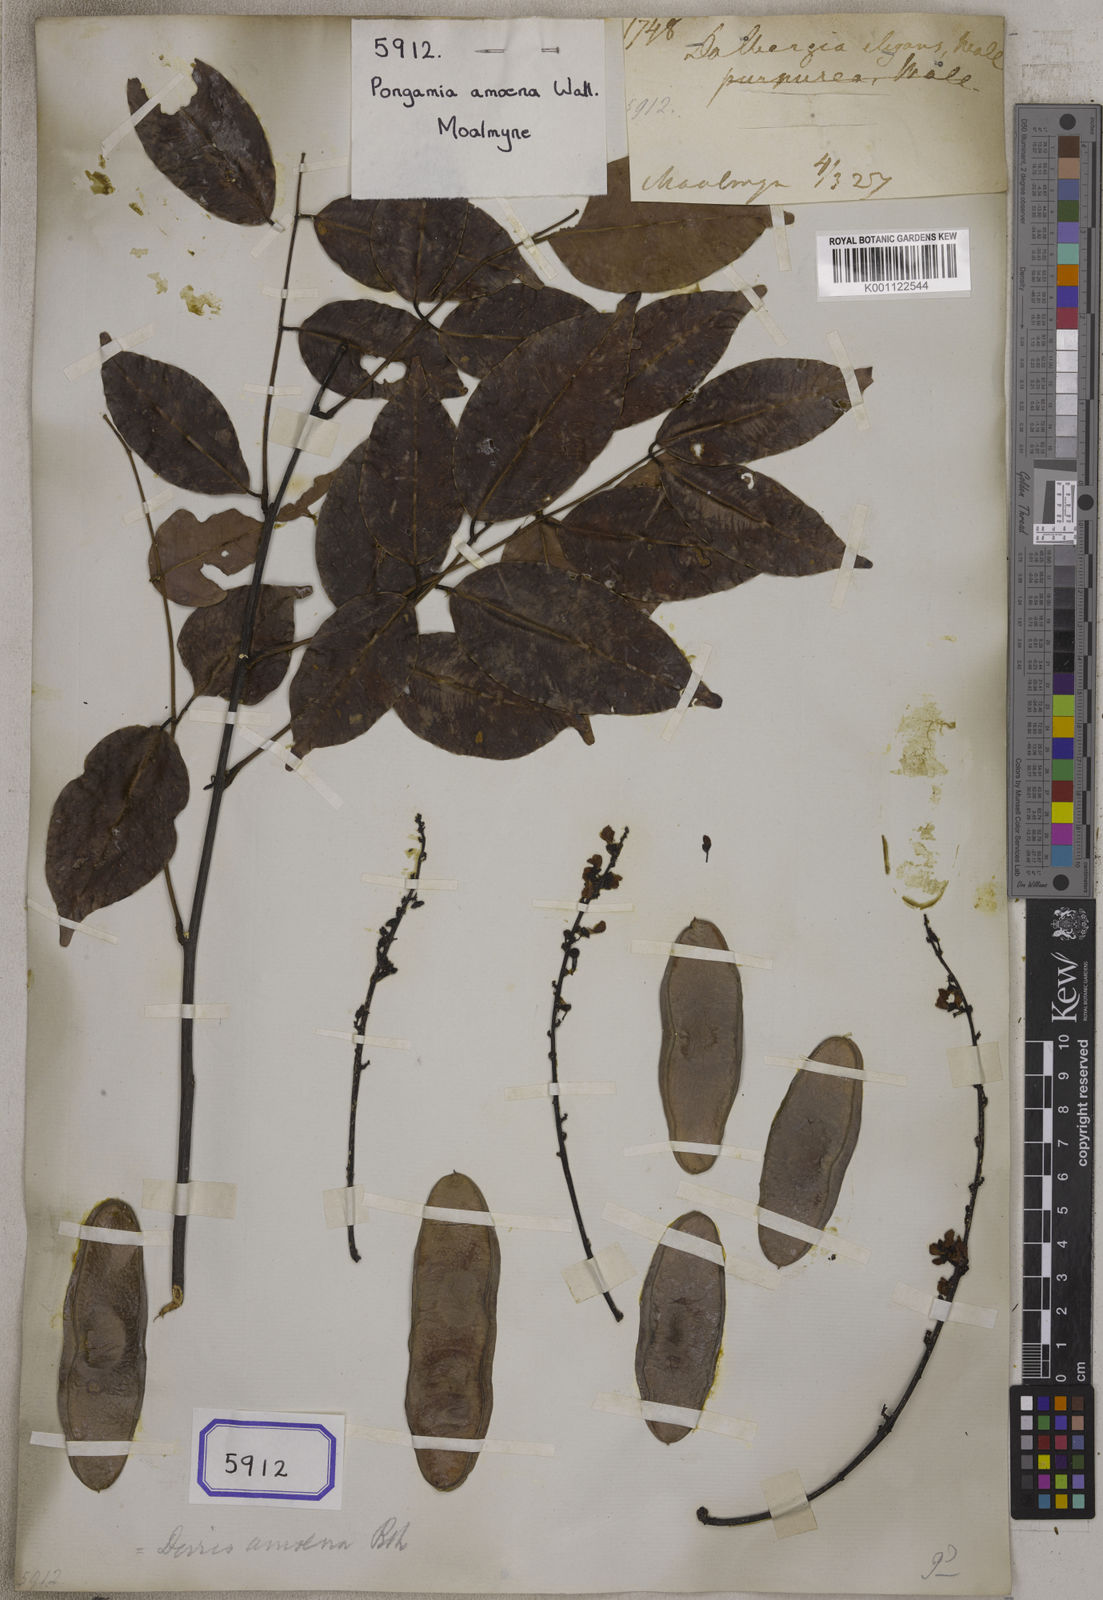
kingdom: Plantae
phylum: Tracheophyta
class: Magnoliopsida
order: Fabales
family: Fabaceae
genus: Pongamia
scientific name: Pongamia
